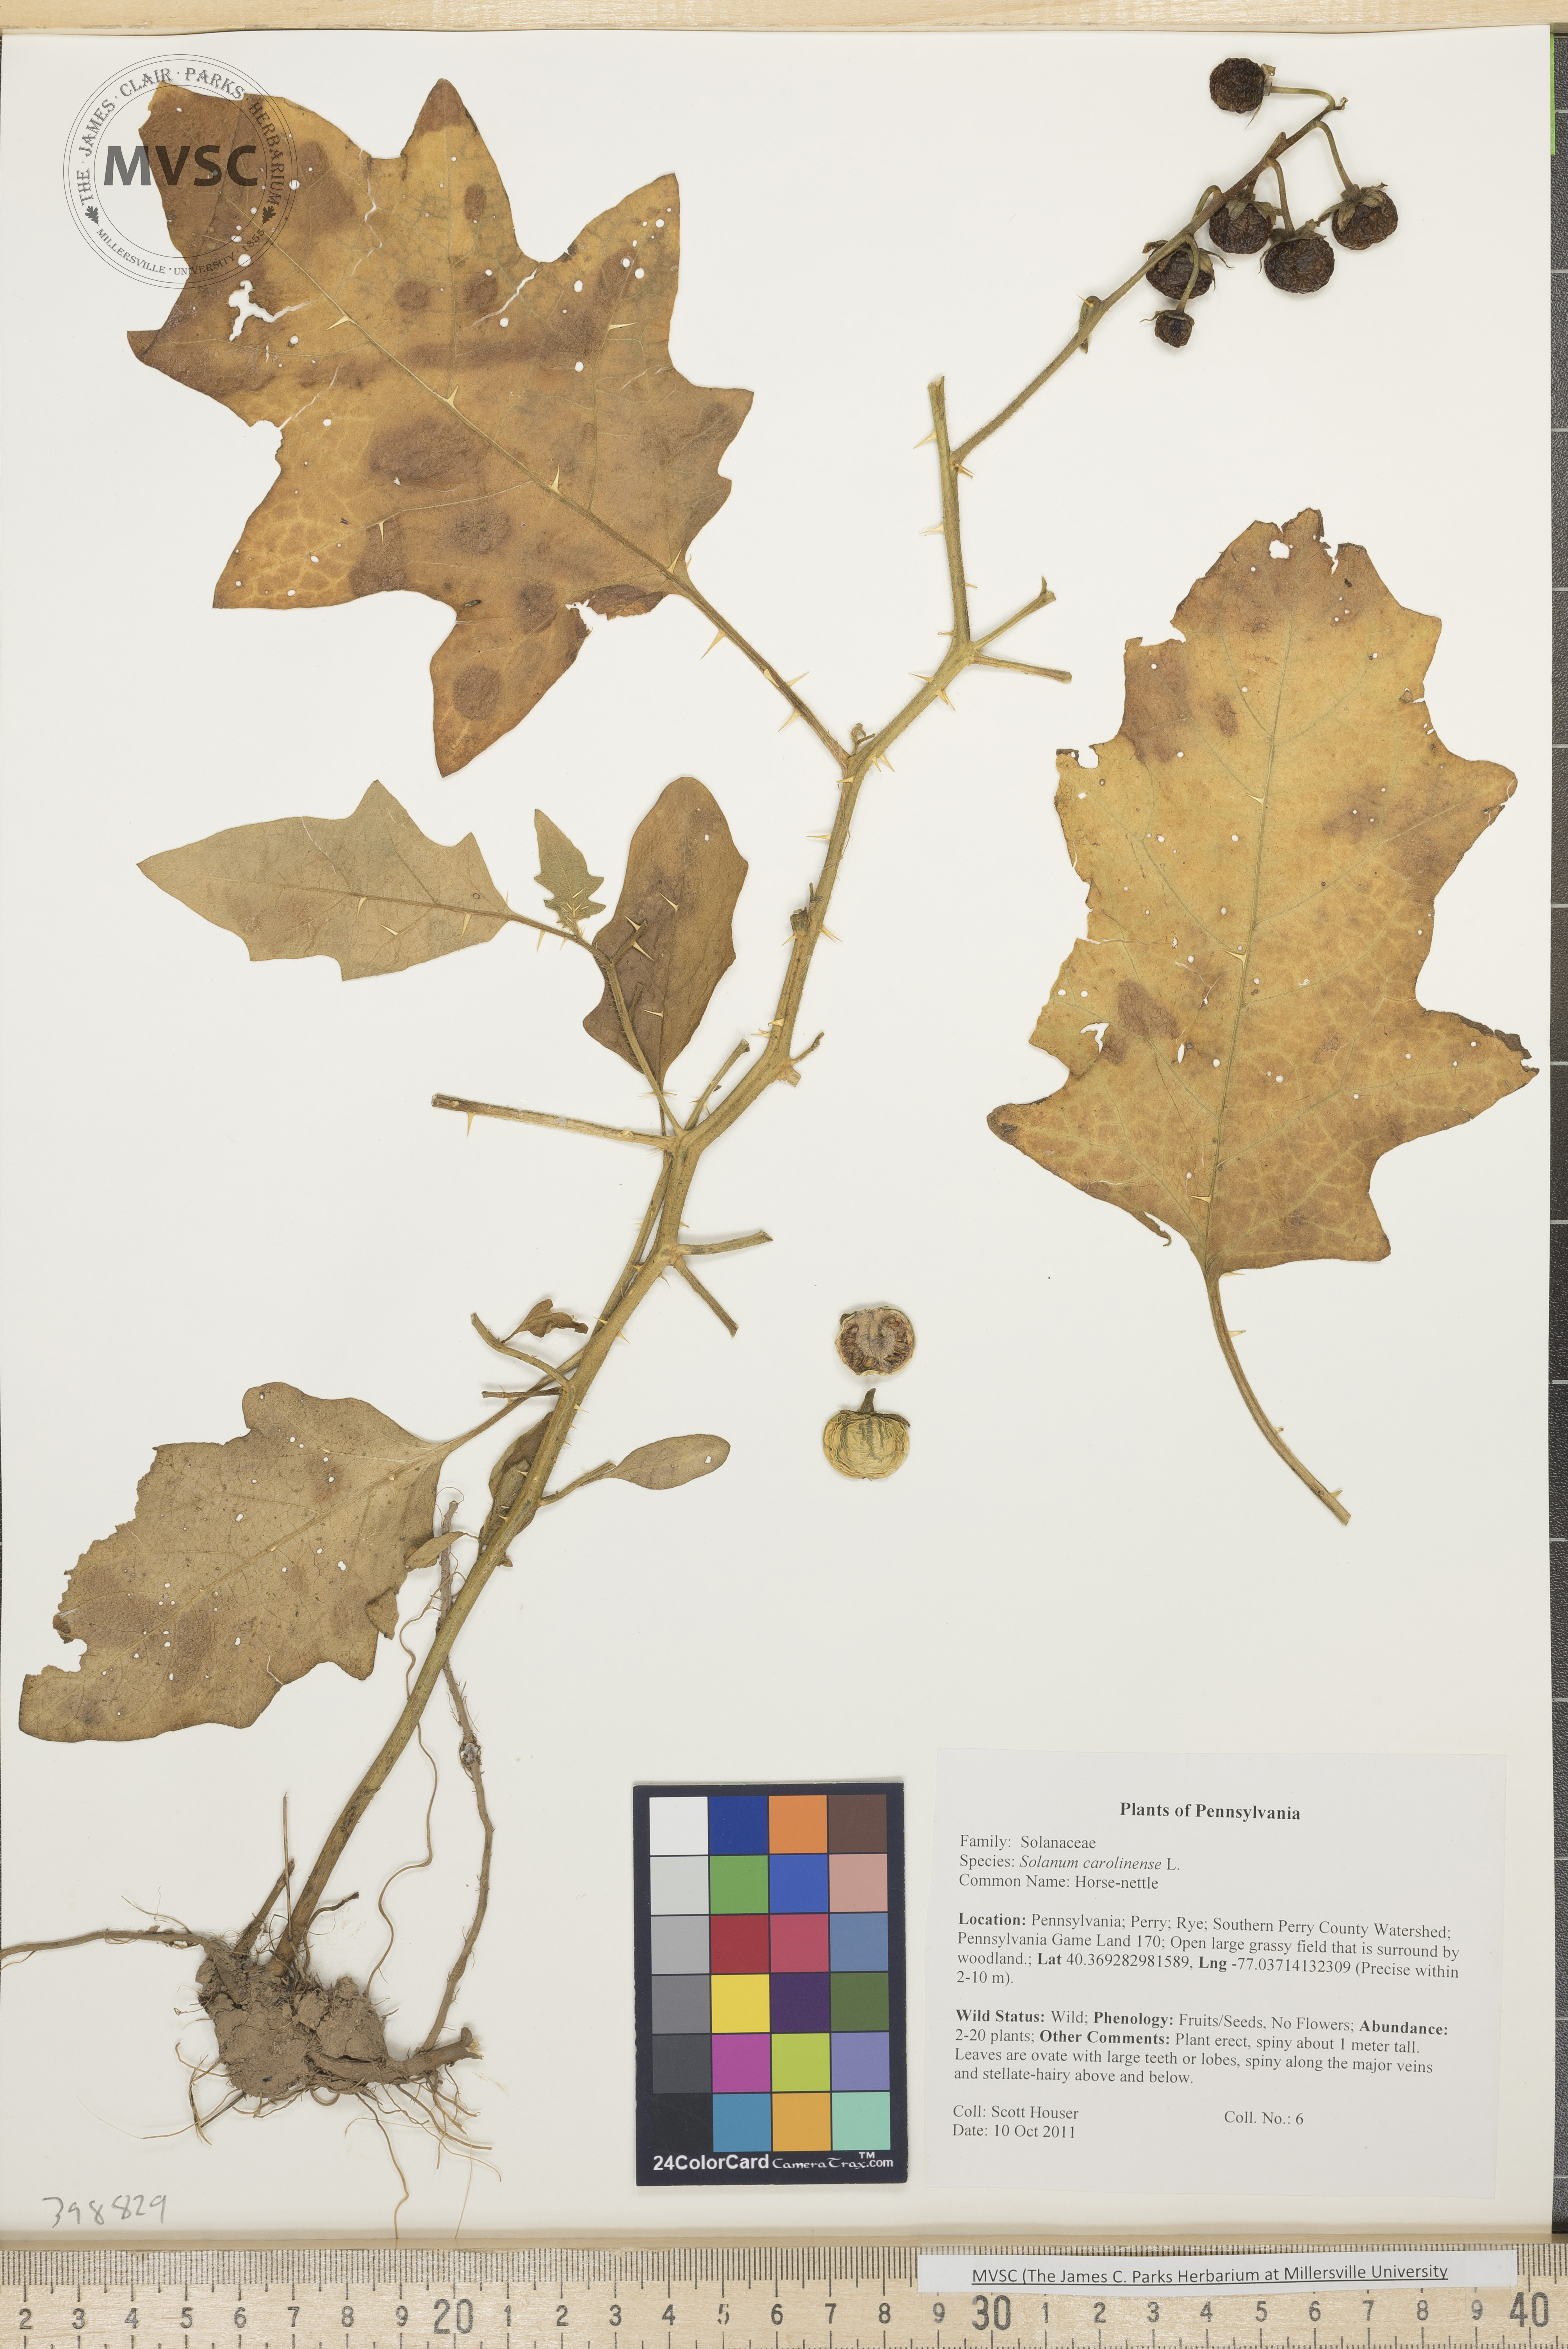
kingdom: Plantae
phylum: Tracheophyta
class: Magnoliopsida
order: Solanales
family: Solanaceae
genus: Solanum
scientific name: Solanum carolinense
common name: Horse-nettle
